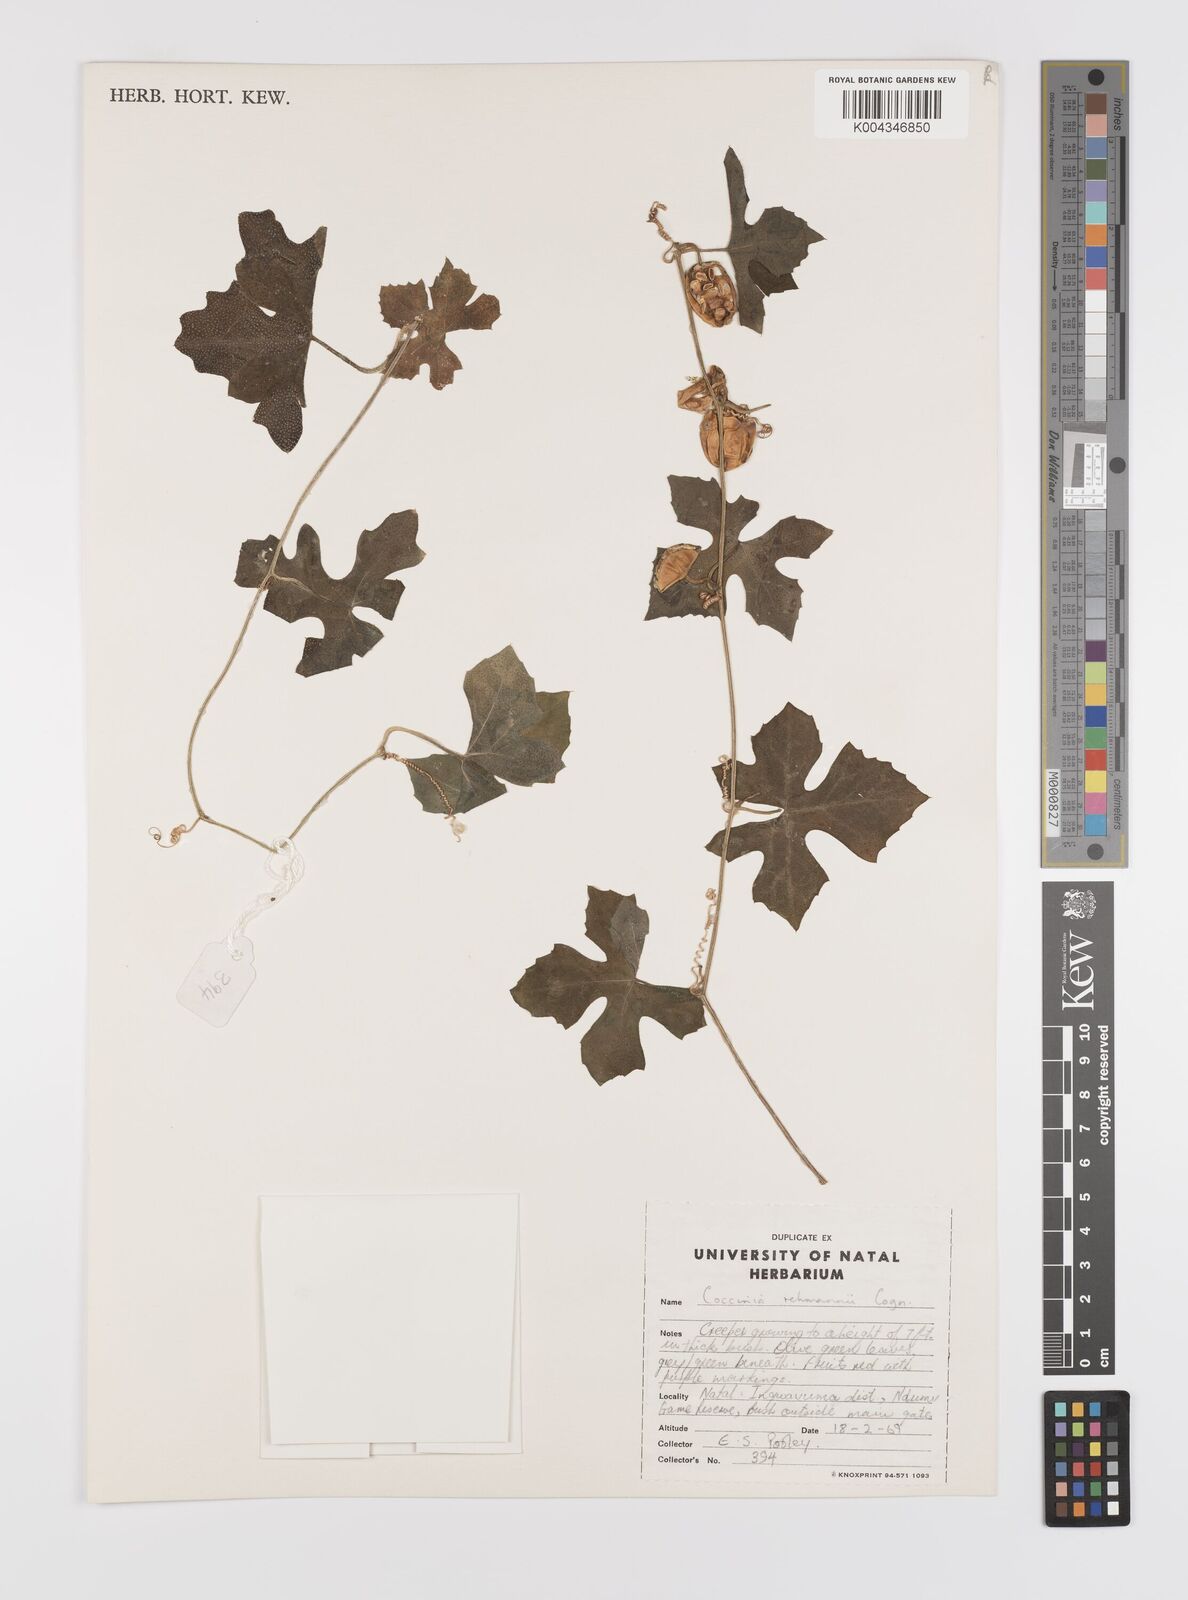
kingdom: Plantae
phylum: Tracheophyta
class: Magnoliopsida
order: Cucurbitales
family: Cucurbitaceae
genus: Coccinia
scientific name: Coccinia rehmannii
